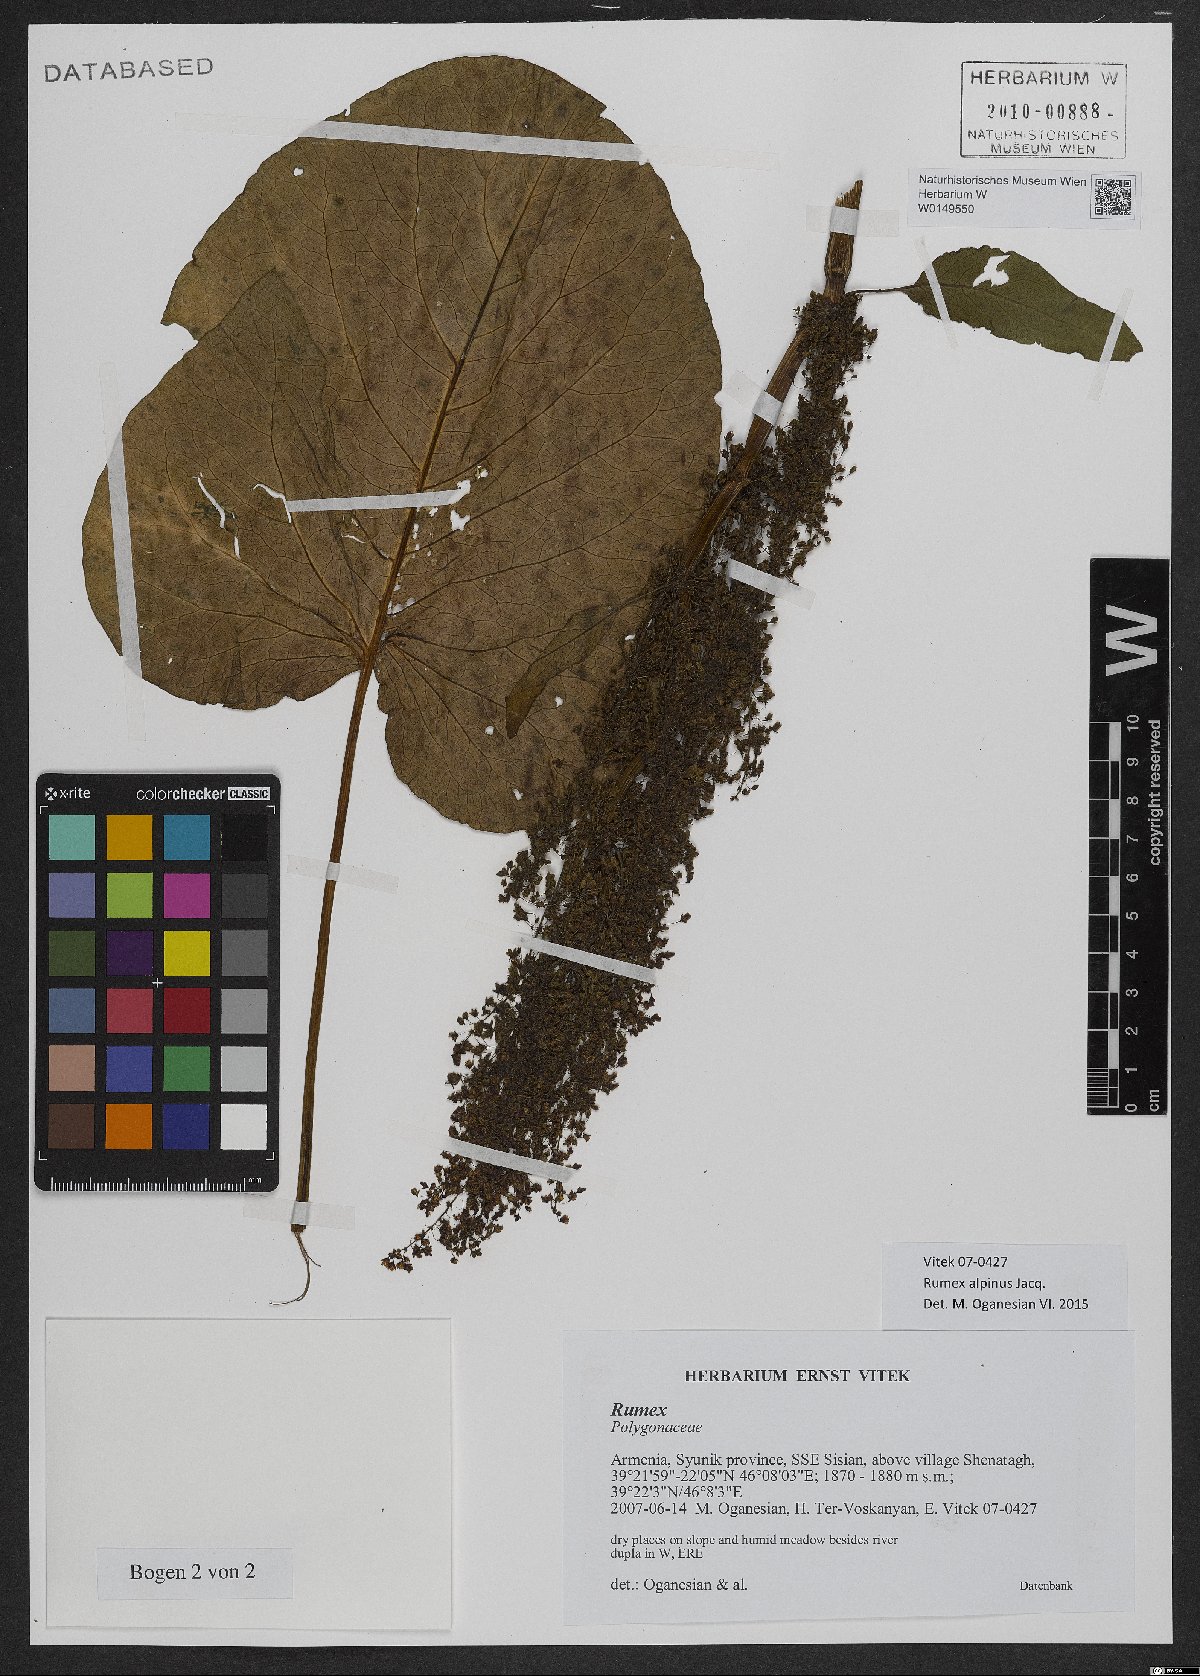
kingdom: Plantae
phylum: Tracheophyta
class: Magnoliopsida
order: Caryophyllales
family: Polygonaceae
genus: Rumex
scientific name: Rumex alpinus
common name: Alpine dock
